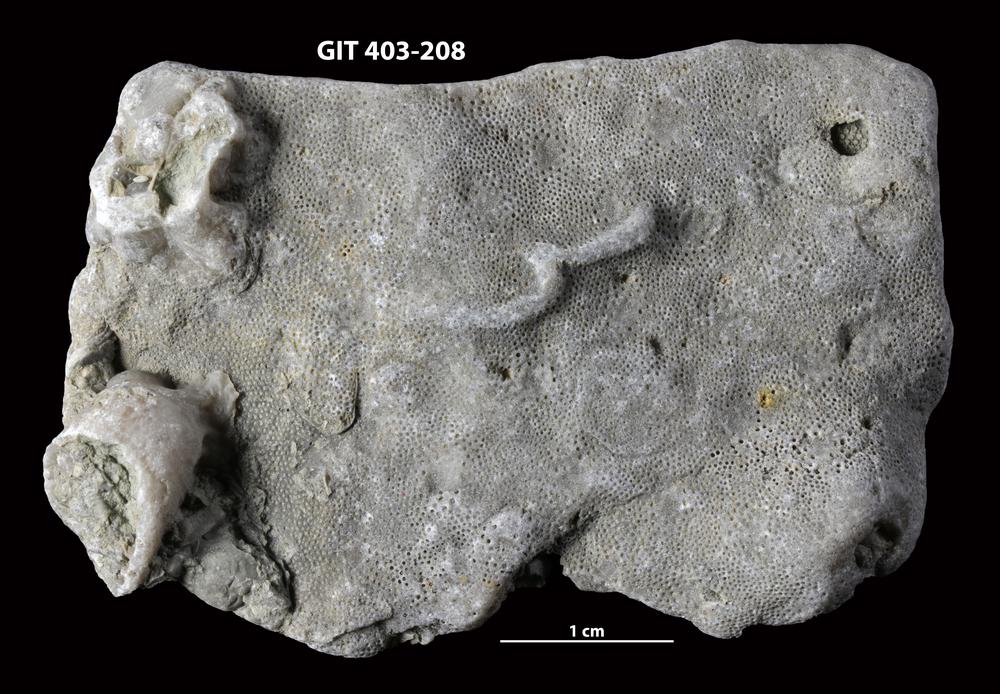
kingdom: Animalia
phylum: Bryozoa
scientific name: Bryozoa
